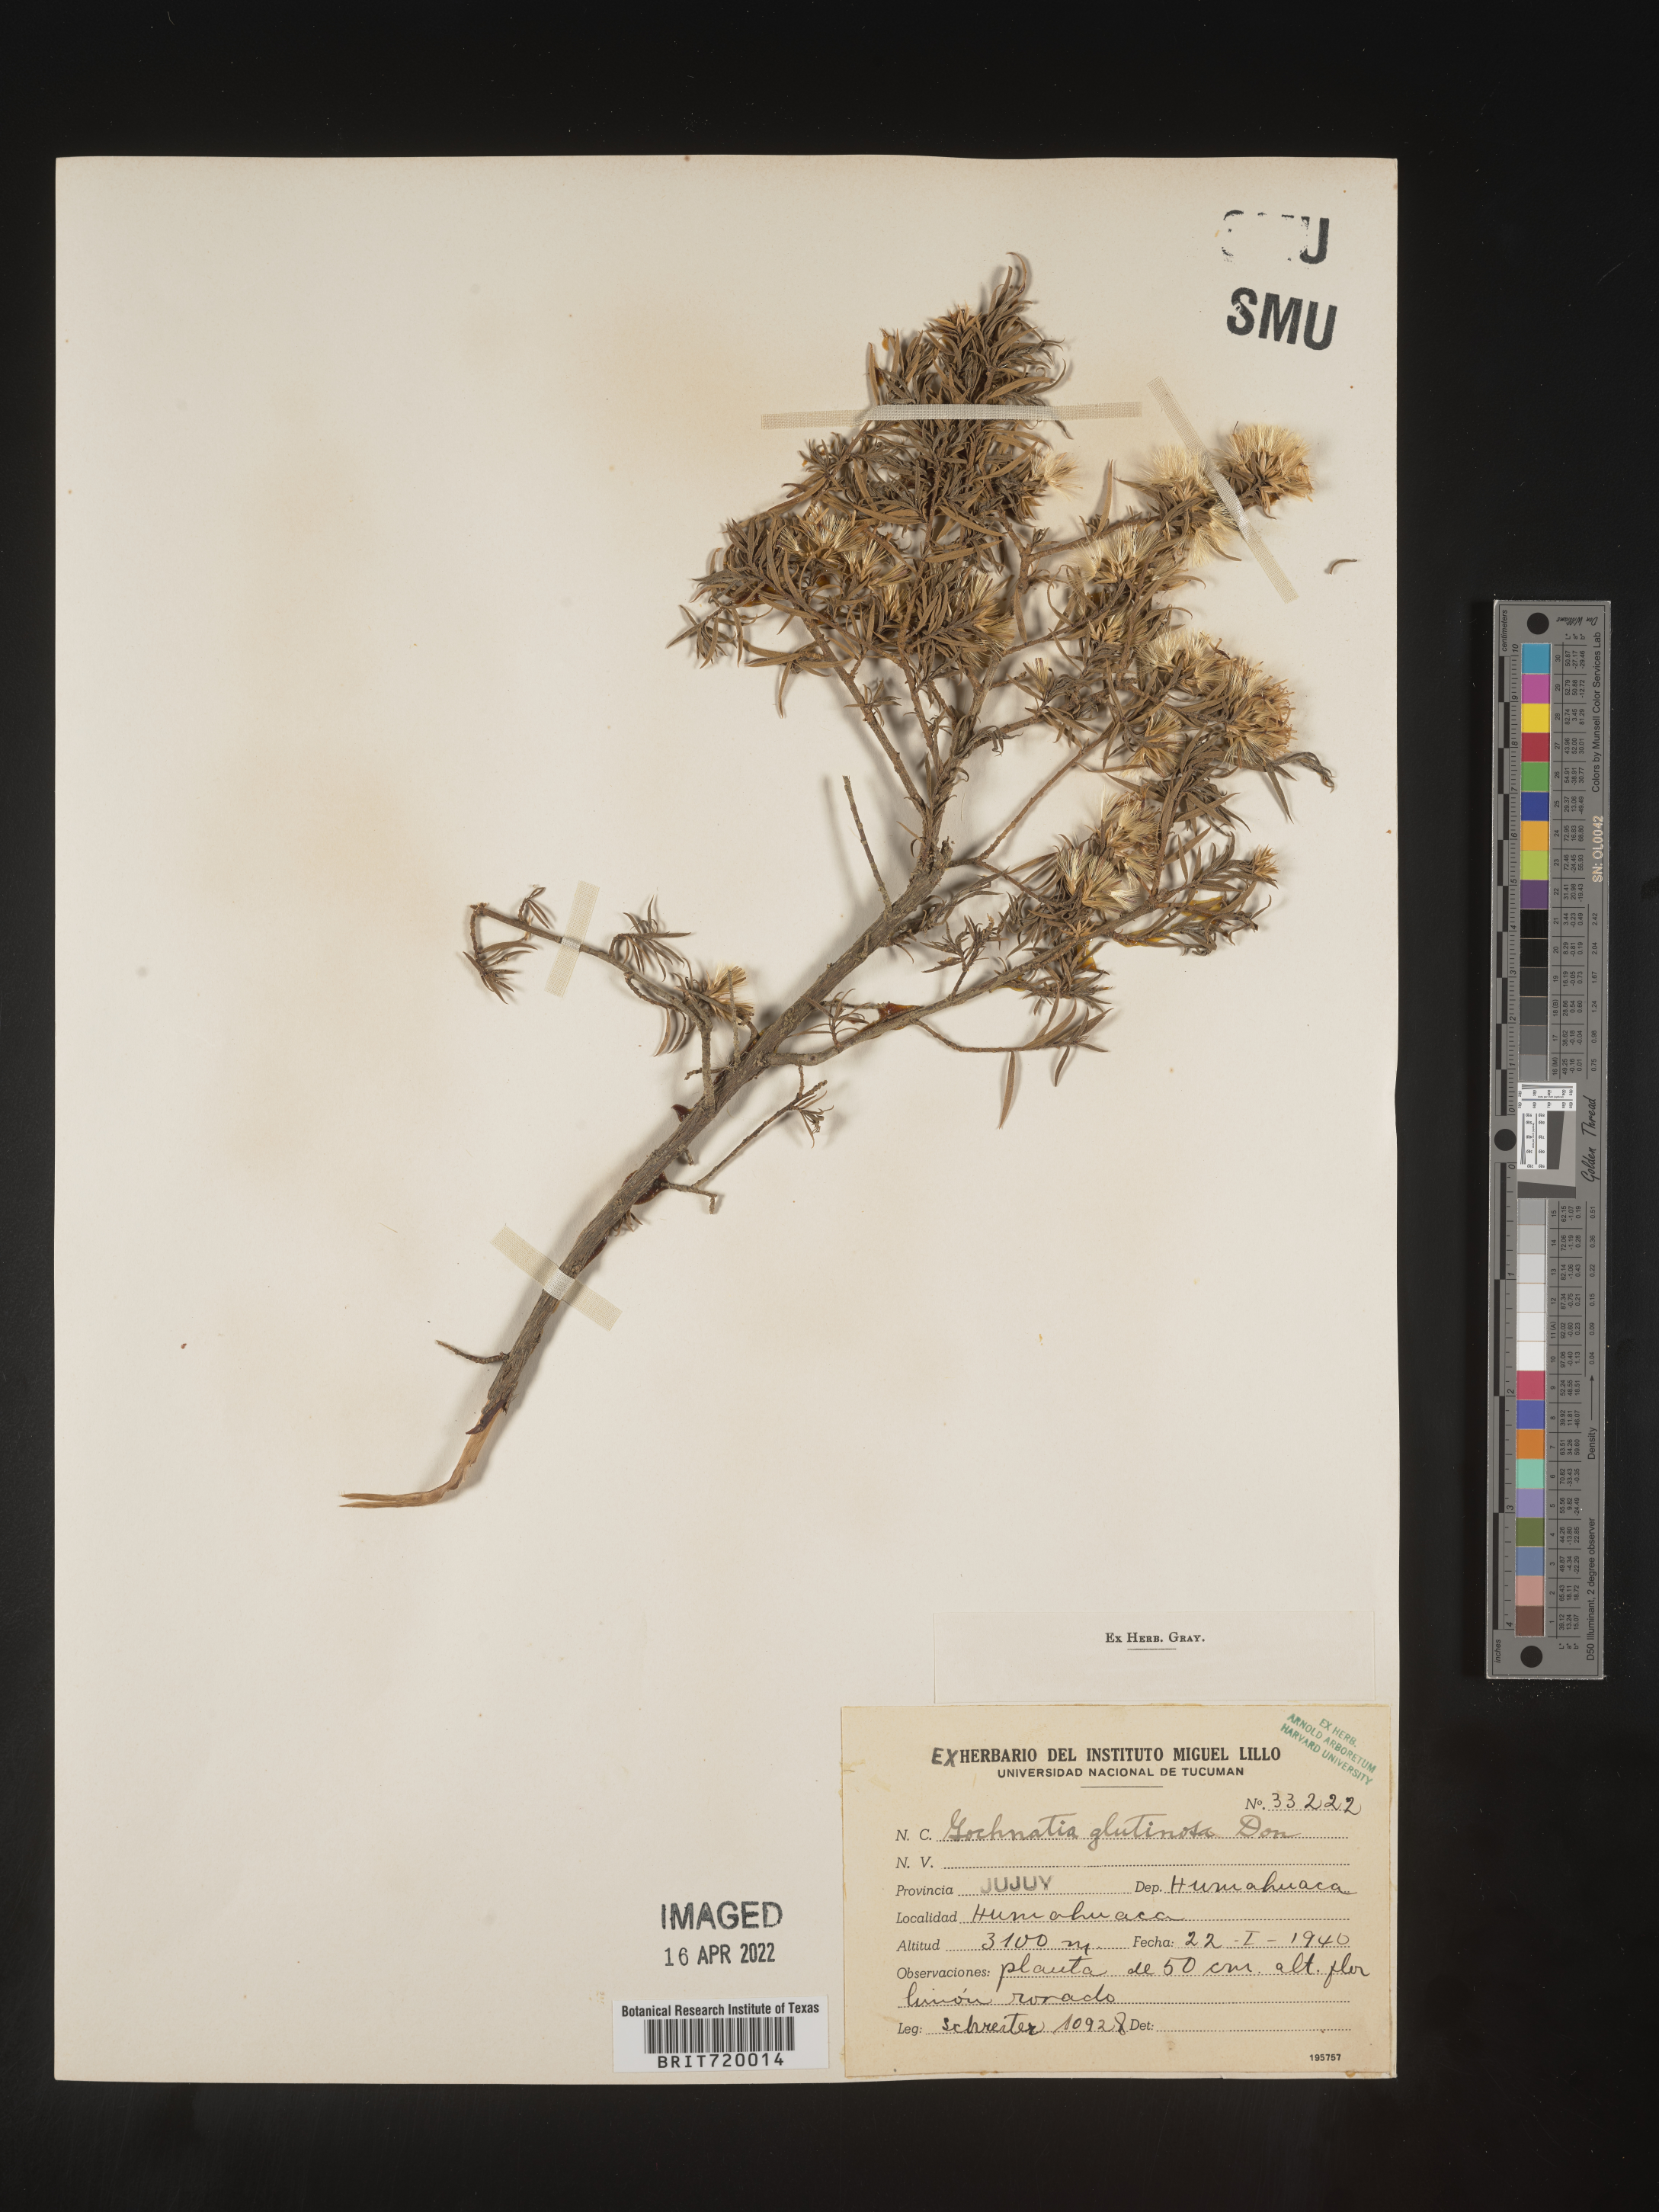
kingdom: Plantae
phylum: Tracheophyta
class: Magnoliopsida
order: Asterales
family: Asteraceae
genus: Gochnatia
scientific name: Gochnatia
